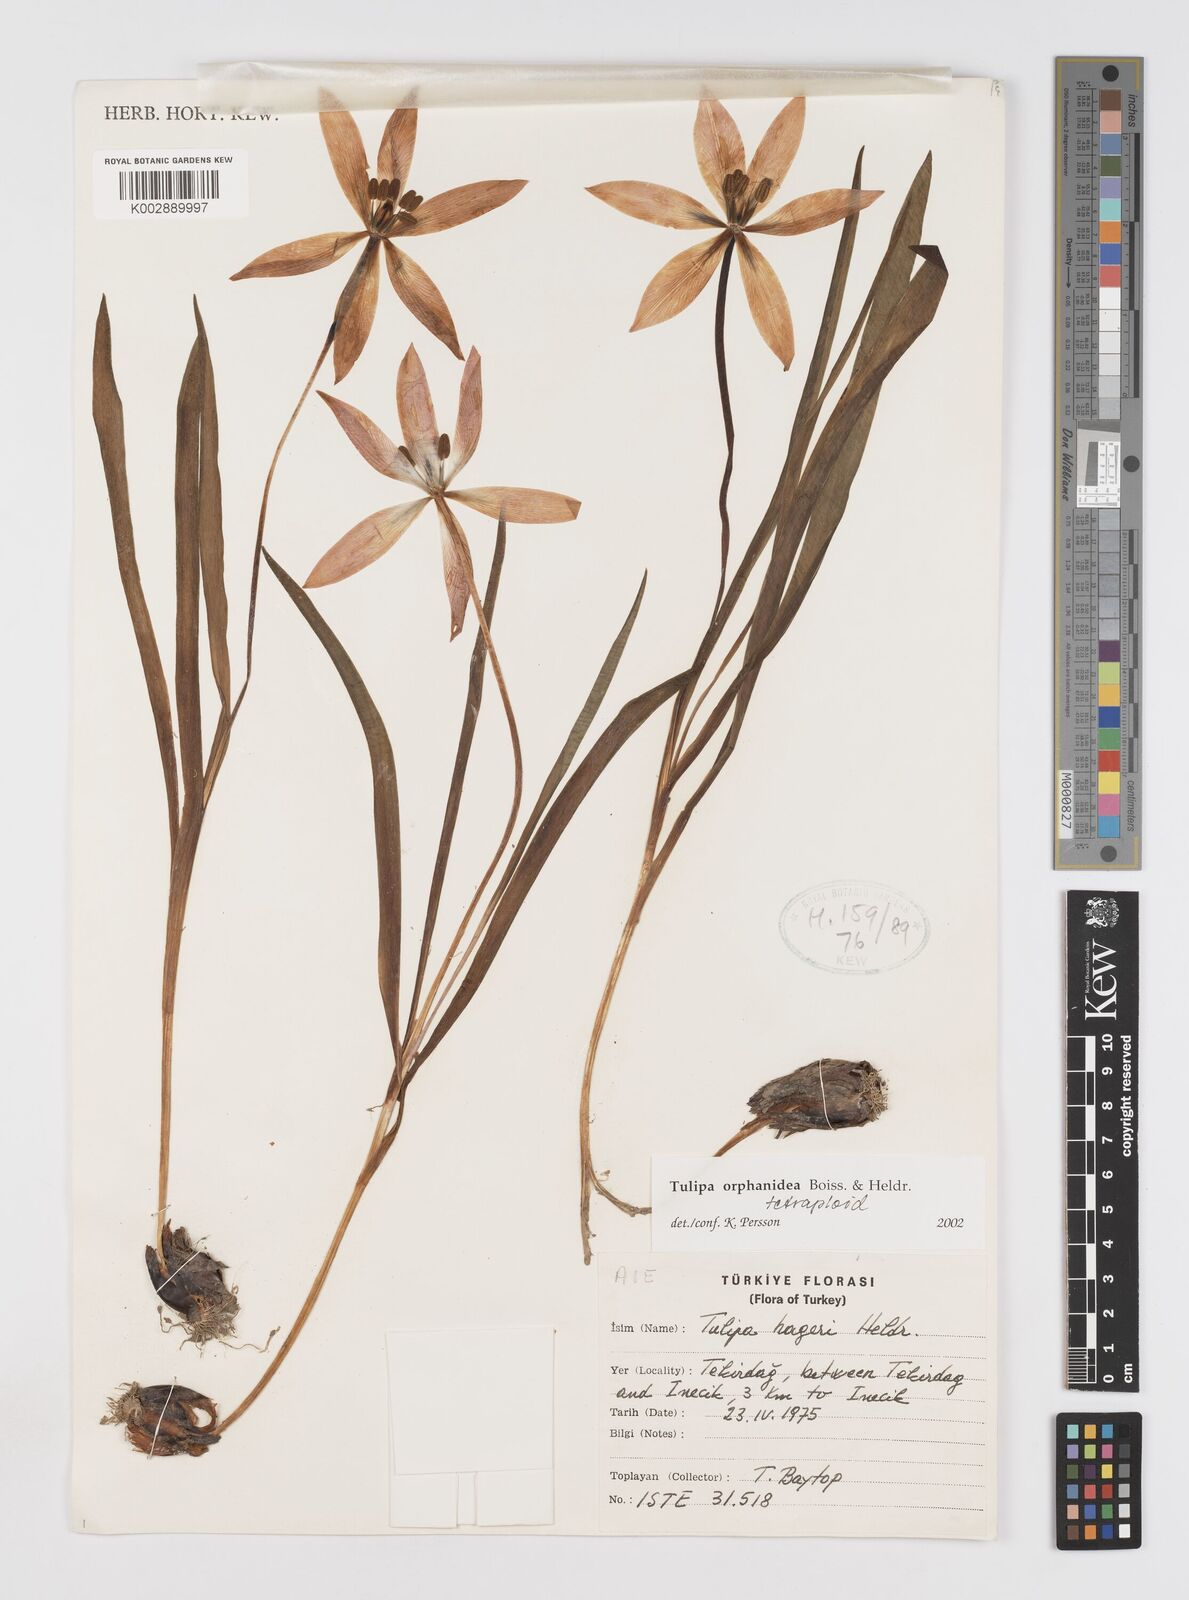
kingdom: Plantae
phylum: Tracheophyta
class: Liliopsida
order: Liliales
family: Liliaceae
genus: Tulipa
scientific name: Tulipa orphanidea
